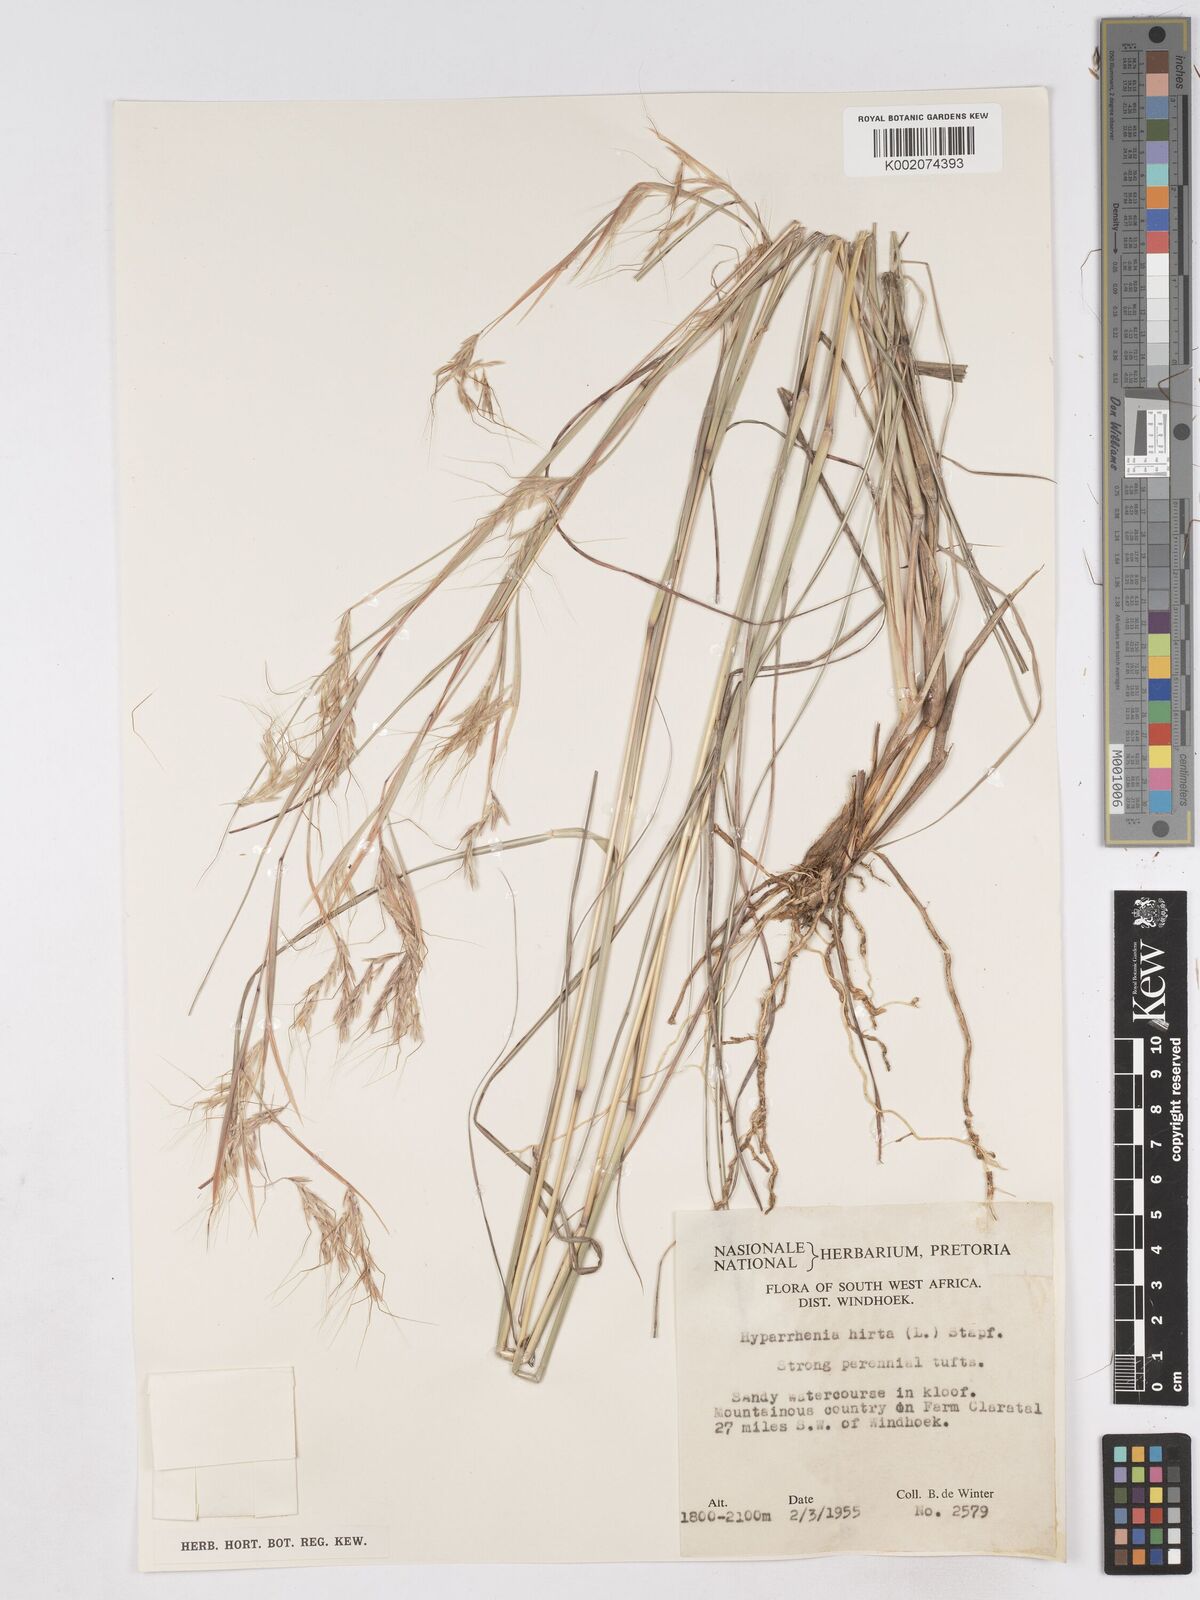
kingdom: Plantae
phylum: Tracheophyta
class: Liliopsida
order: Poales
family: Poaceae
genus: Hyparrhenia
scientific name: Hyparrhenia hirta
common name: Thatching grass
